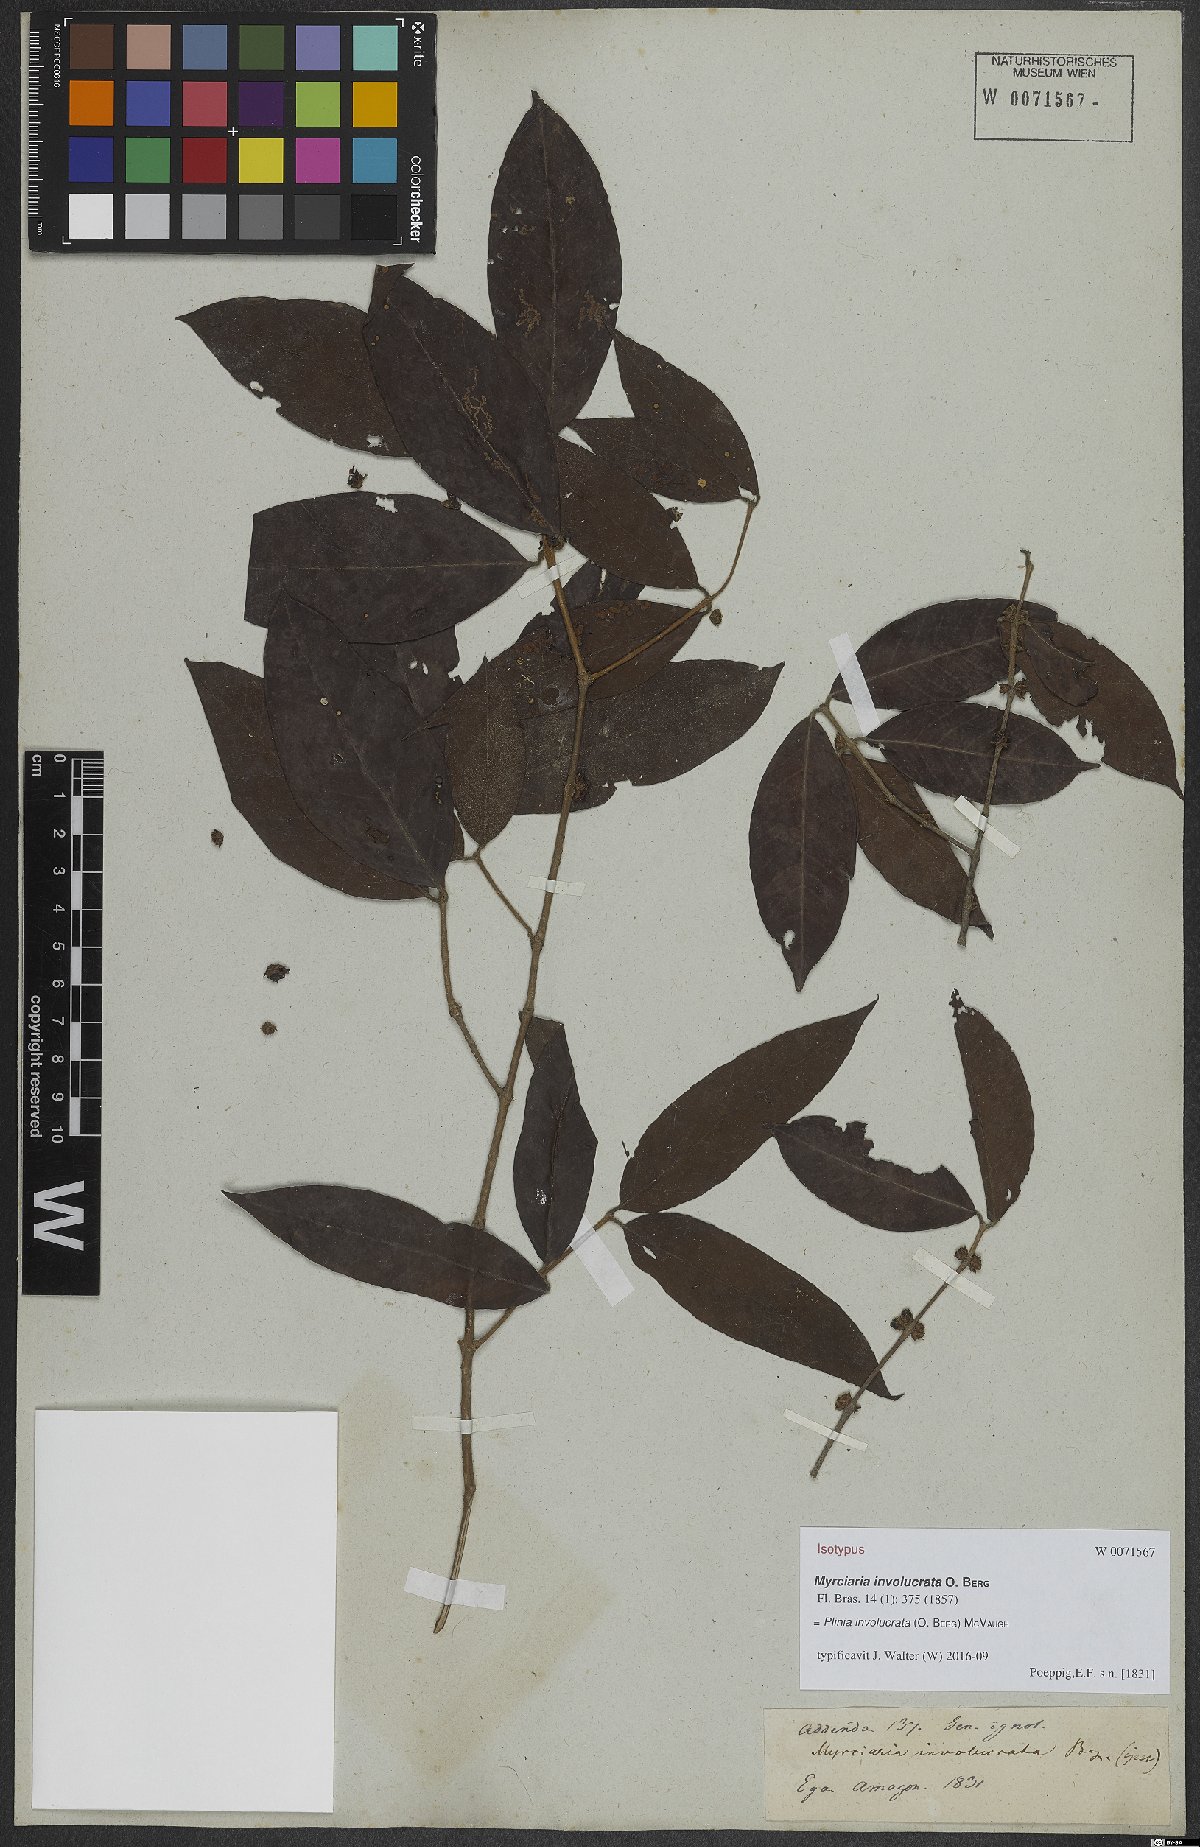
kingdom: Plantae
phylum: Tracheophyta
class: Magnoliopsida
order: Myrtales
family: Myrtaceae
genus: Plinia
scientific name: Plinia involucrata
